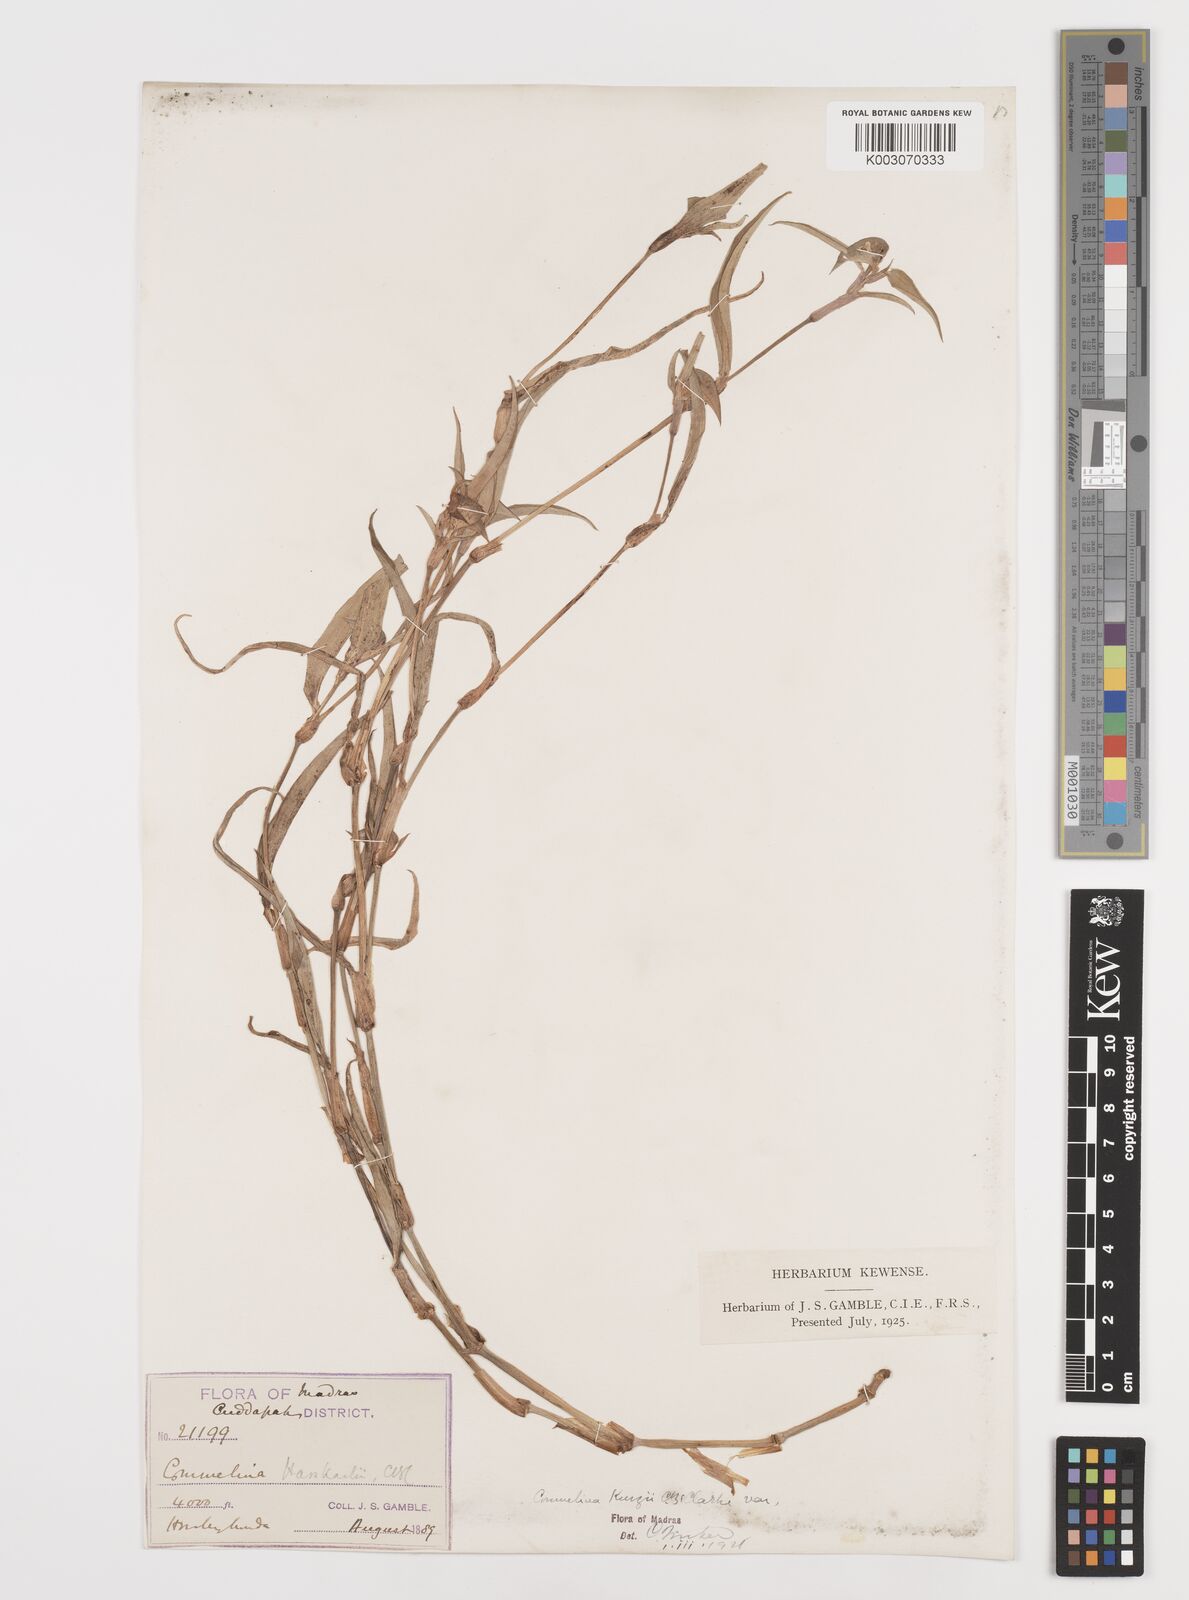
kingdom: Plantae
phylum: Tracheophyta
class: Liliopsida
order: Commelinales
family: Commelinaceae
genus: Commelina
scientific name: Commelina undulata
